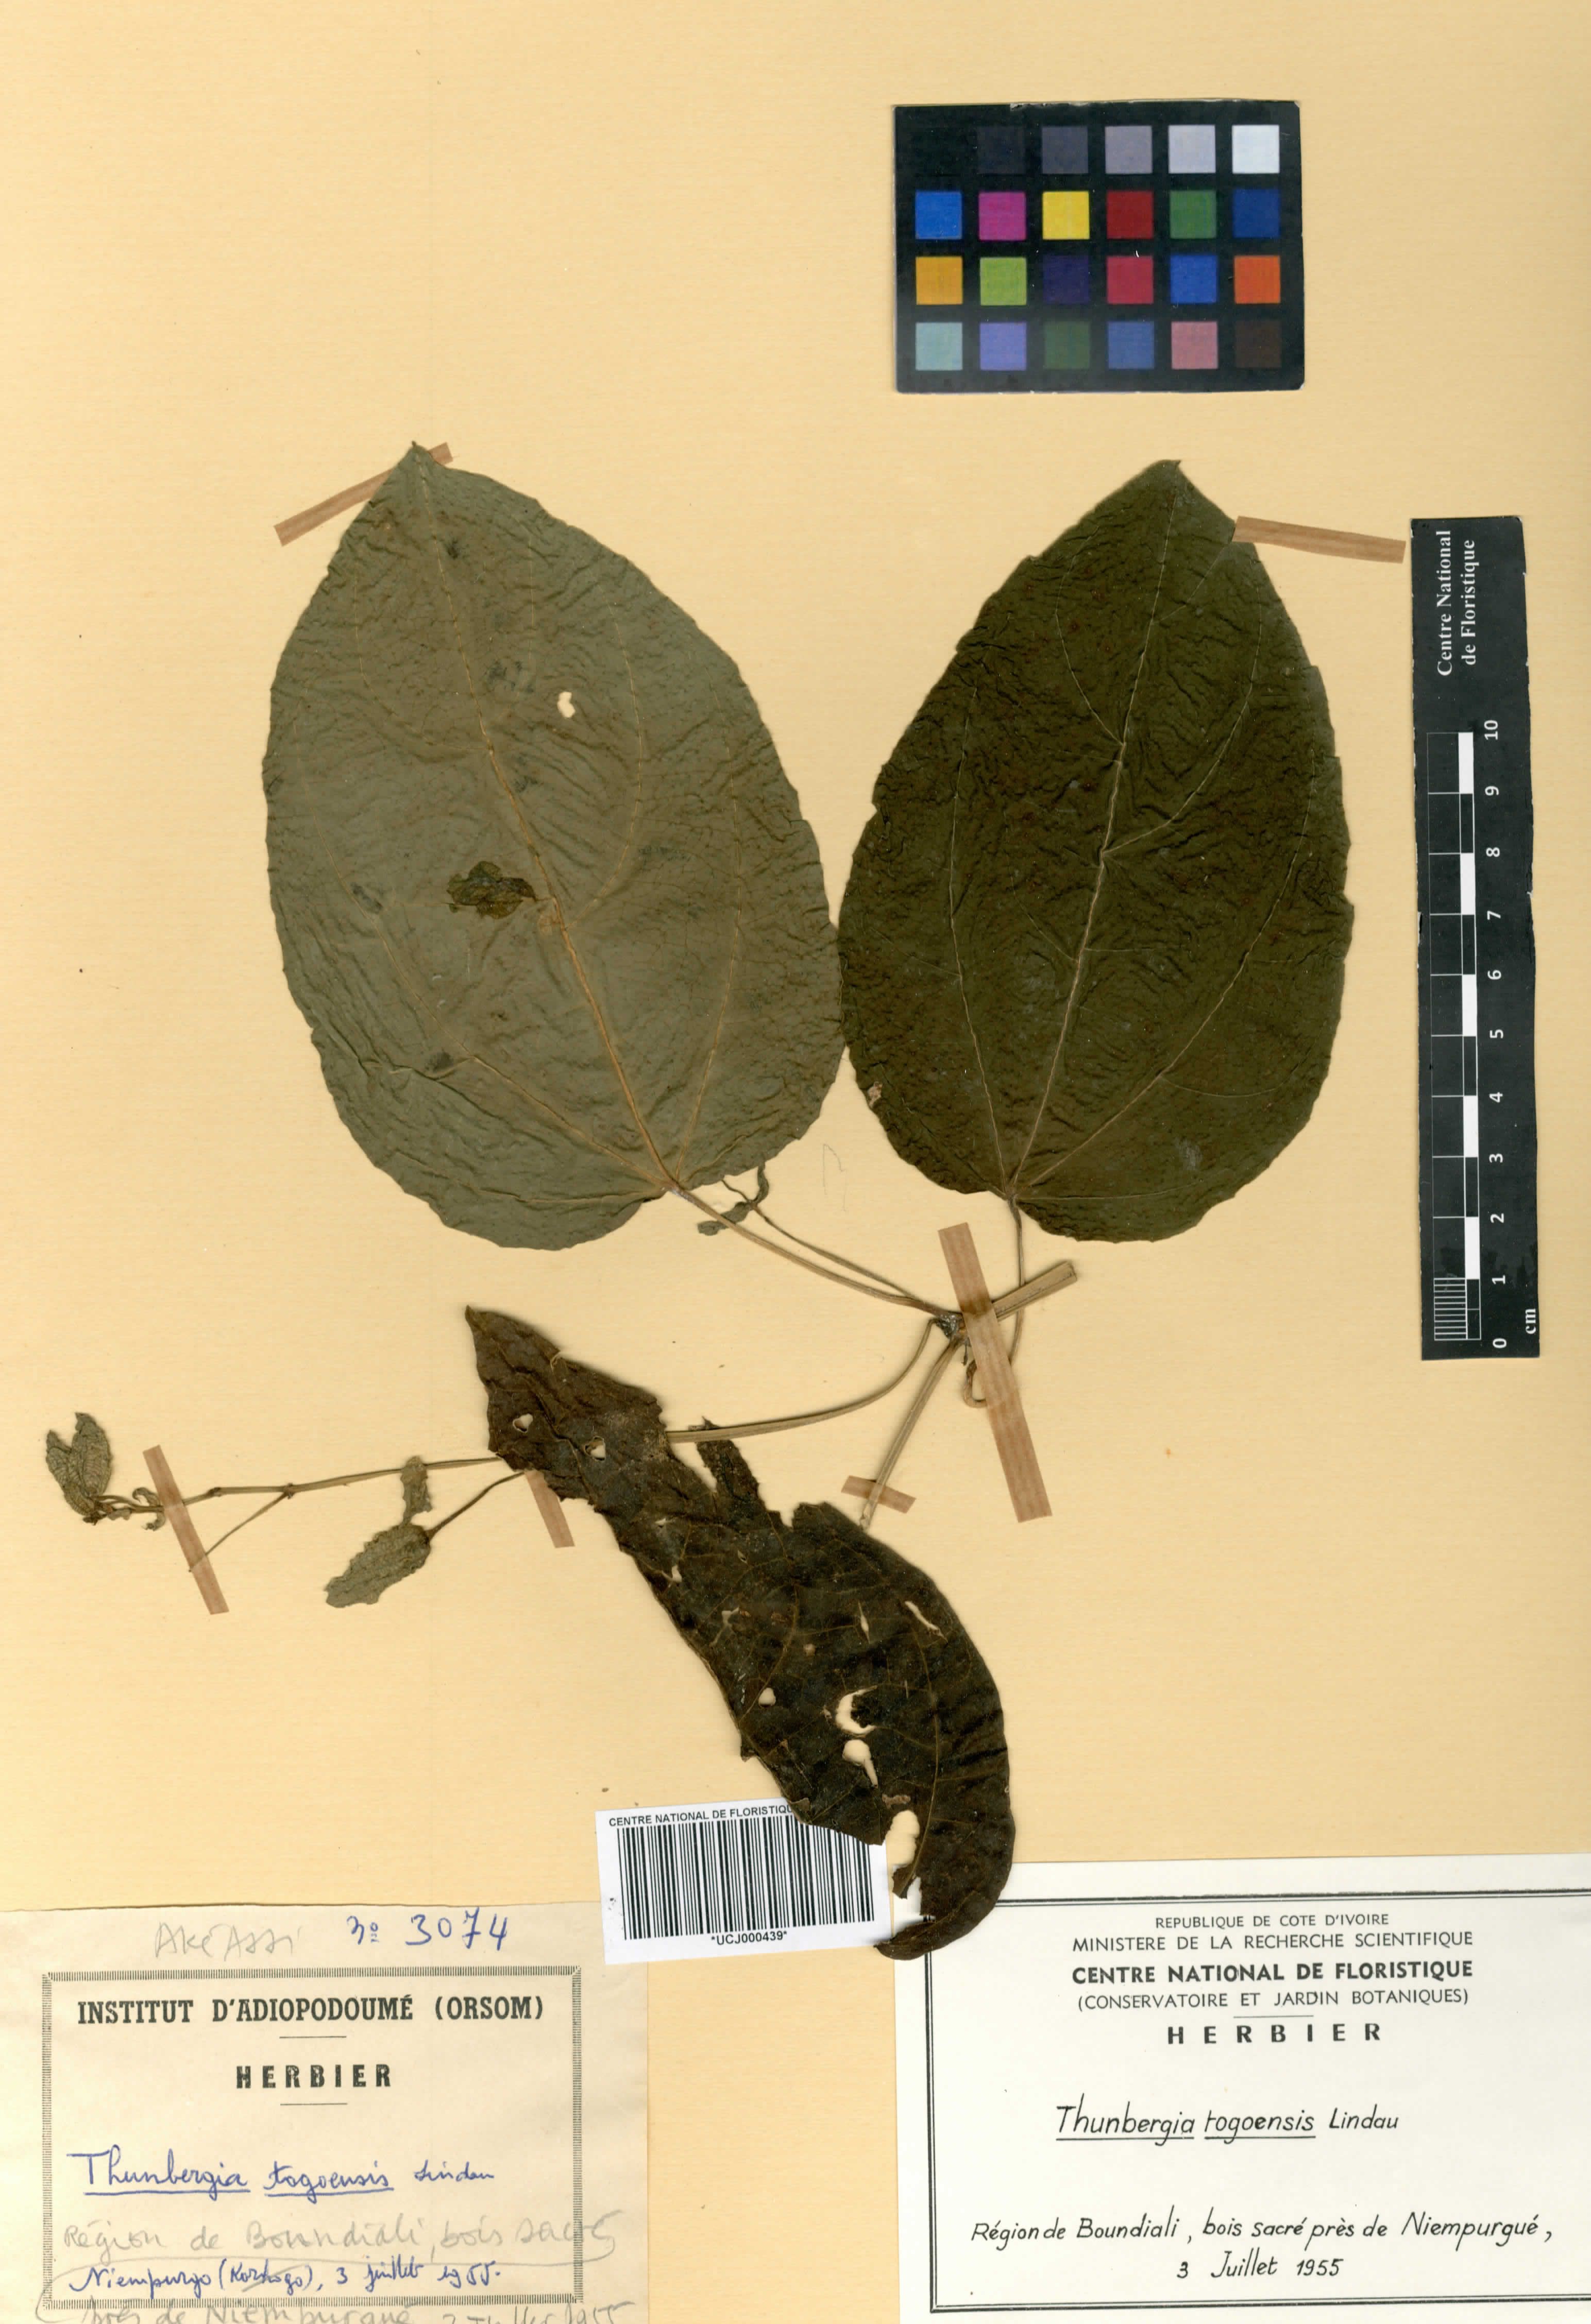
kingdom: Plantae
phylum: Tracheophyta
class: Magnoliopsida
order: Lamiales
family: Acanthaceae
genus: Thunbergia
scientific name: Thunbergia togoensis
